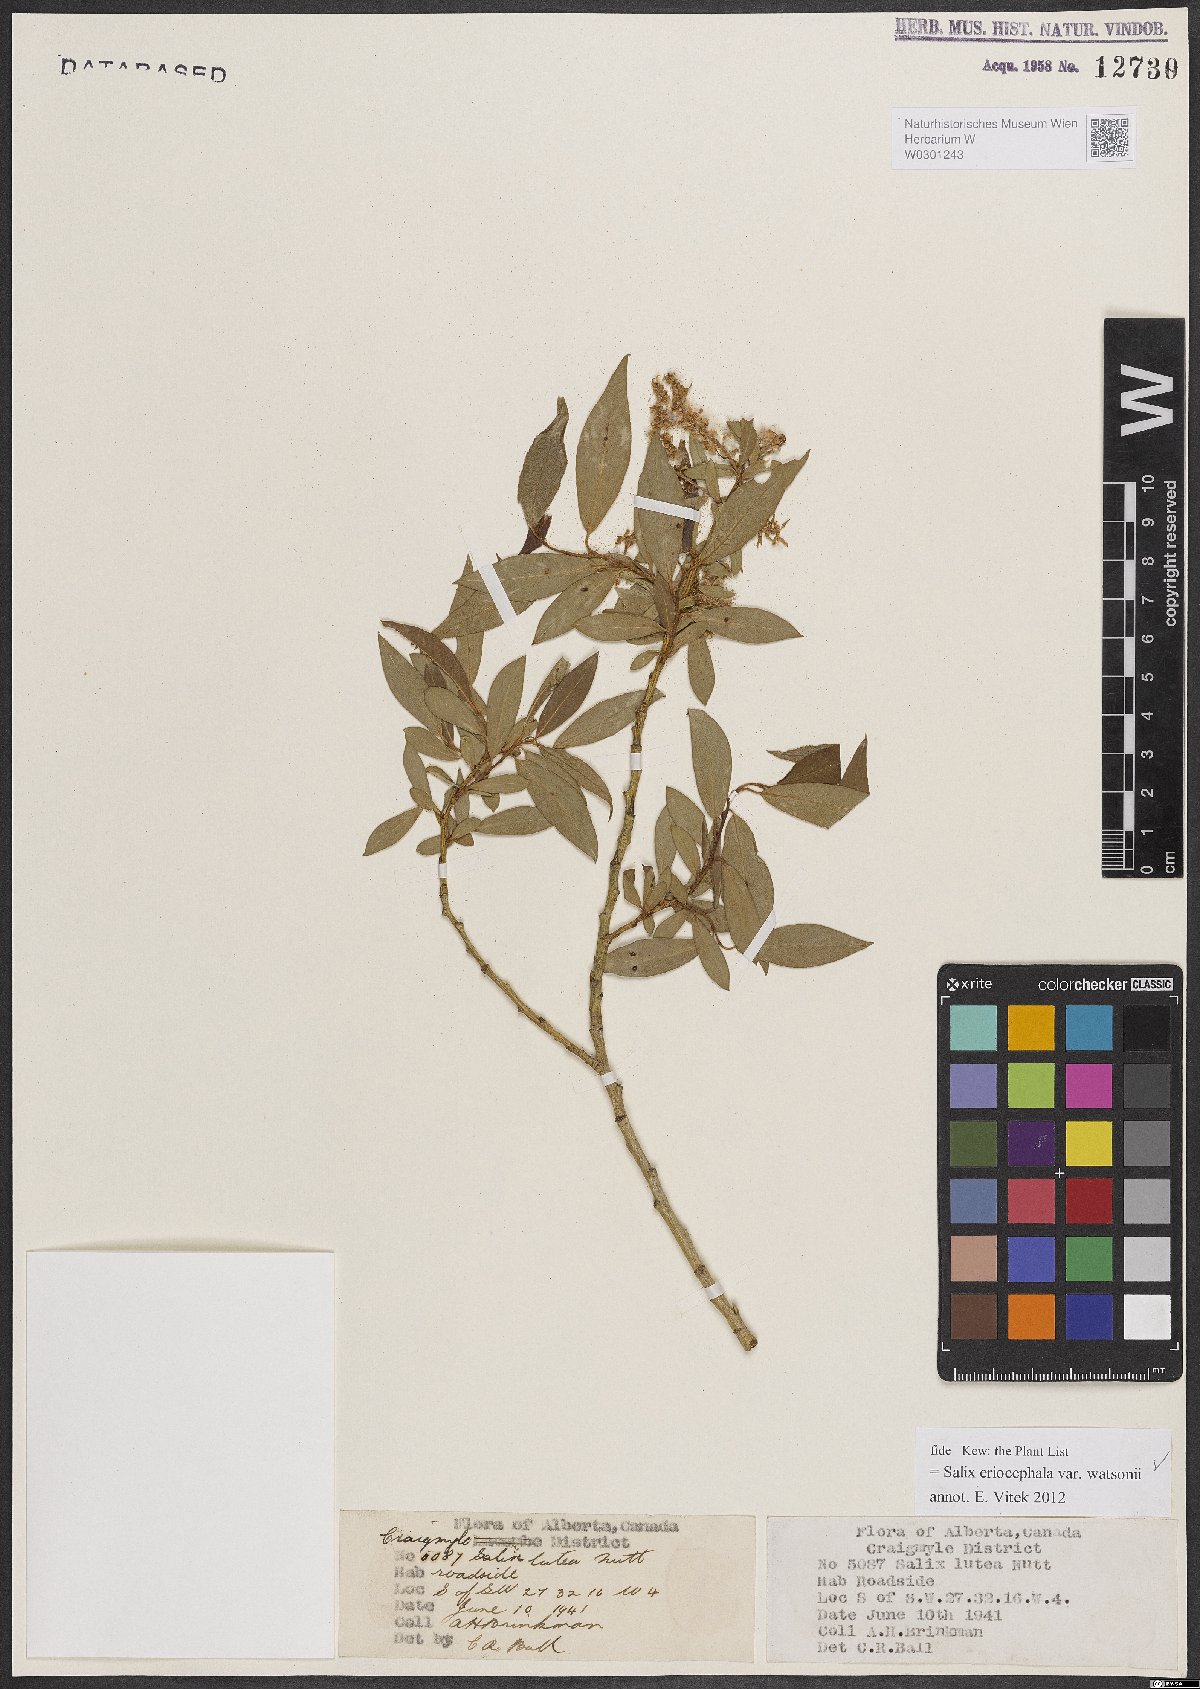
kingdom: Plantae
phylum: Tracheophyta
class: Magnoliopsida
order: Malpighiales
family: Salicaceae
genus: Salix
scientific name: Salix lutea
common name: Yellow willow
